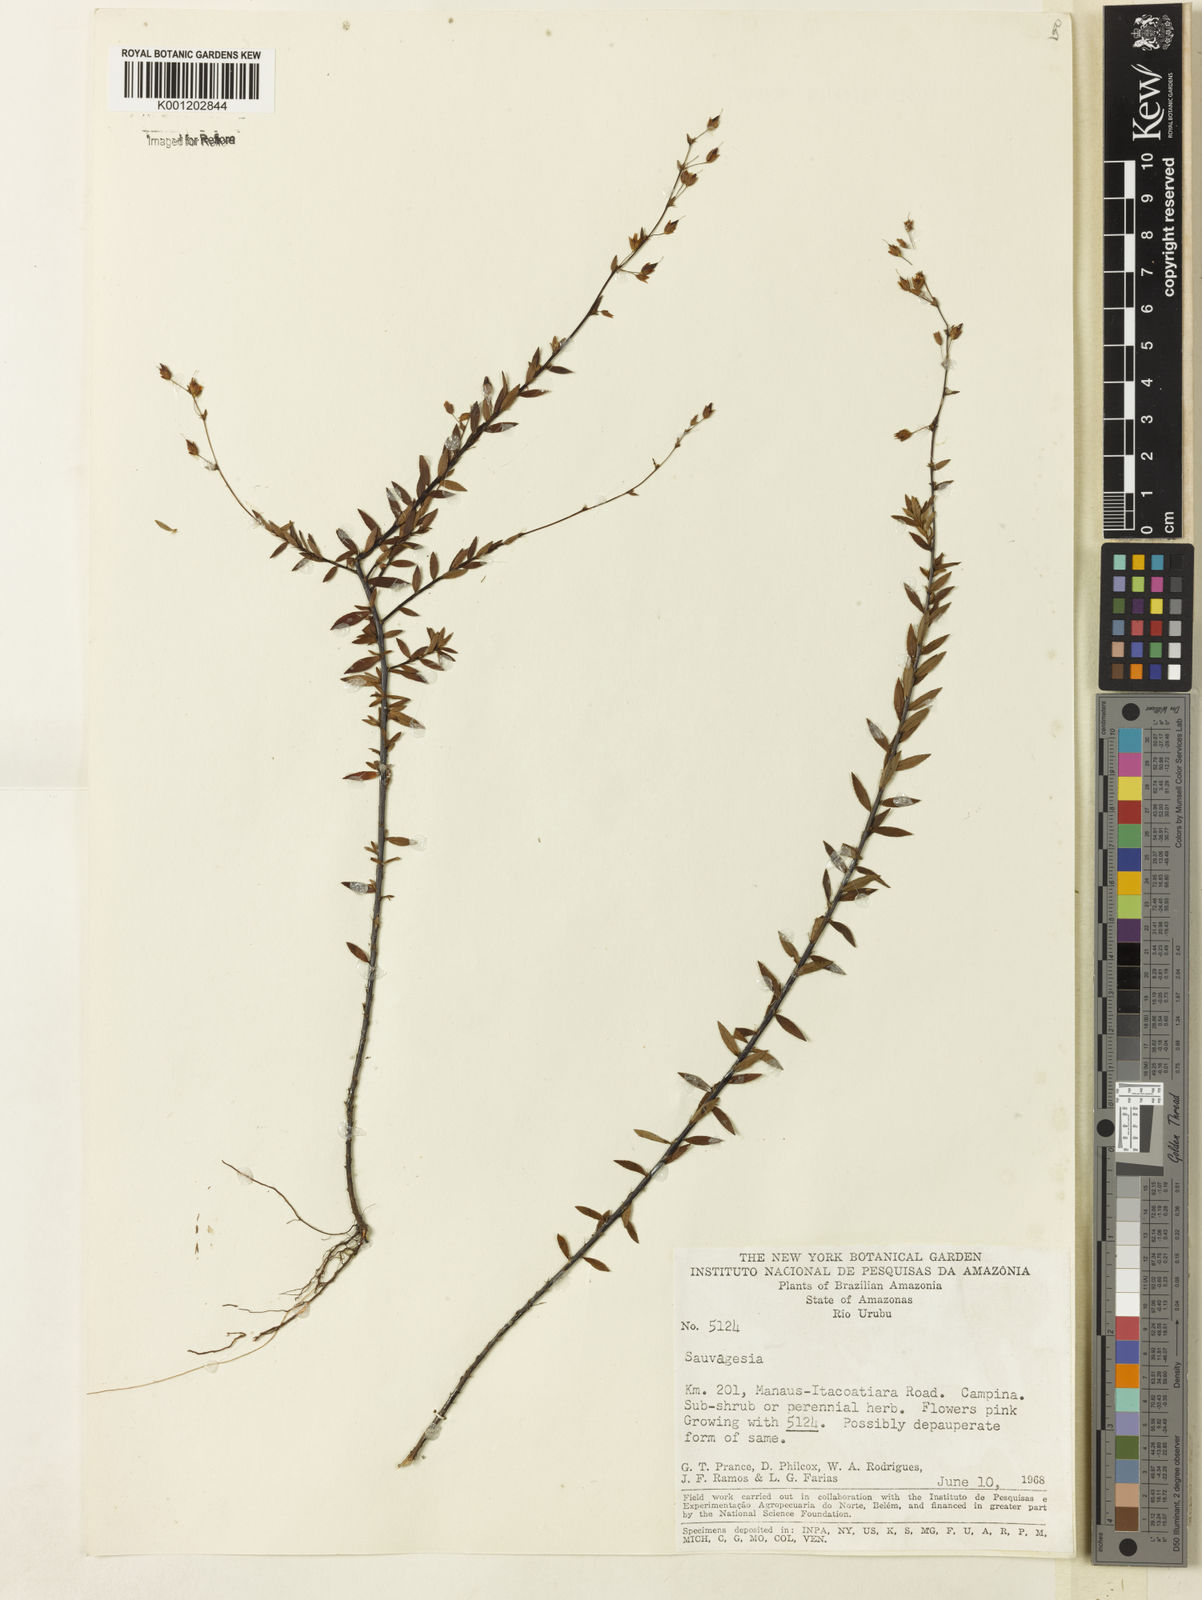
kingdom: Plantae
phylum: Tracheophyta
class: Magnoliopsida
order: Malpighiales
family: Ochnaceae
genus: Sauvagesia
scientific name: Sauvagesia sprengelii
